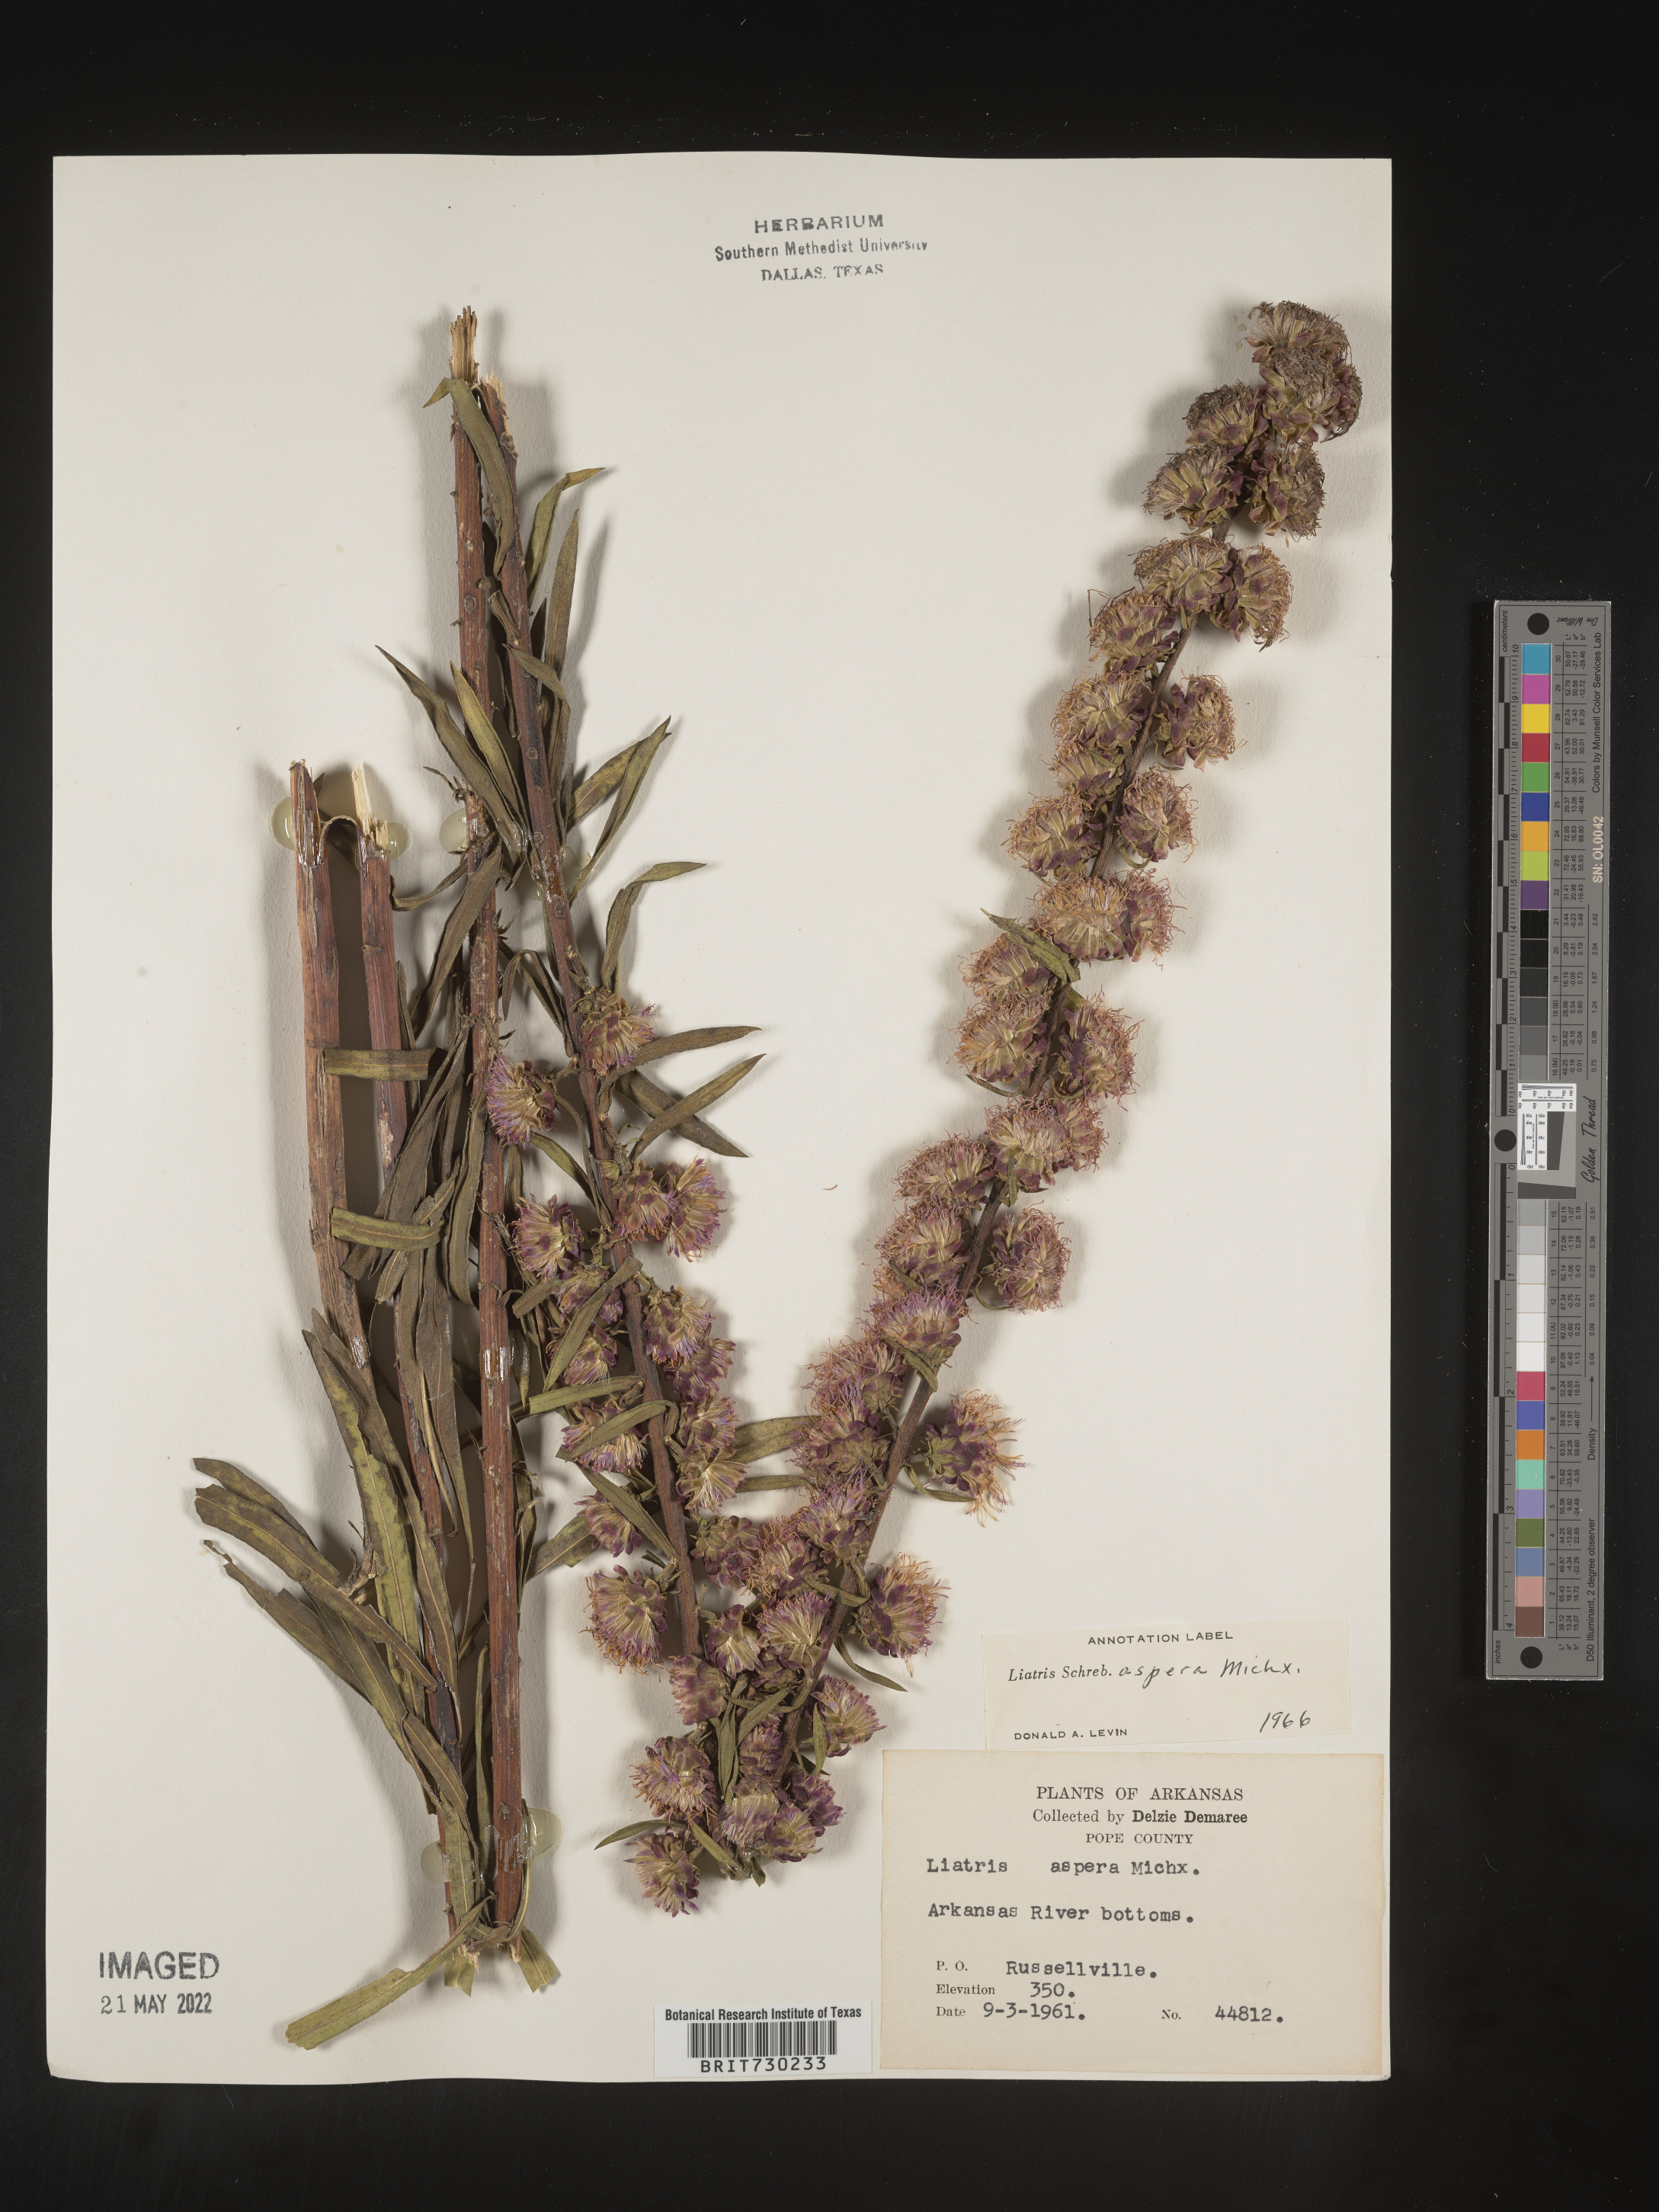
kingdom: Plantae
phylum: Tracheophyta
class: Magnoliopsida
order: Asterales
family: Asteraceae
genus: Liatris
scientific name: Liatris aspera
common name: Lacerate blazing-star
